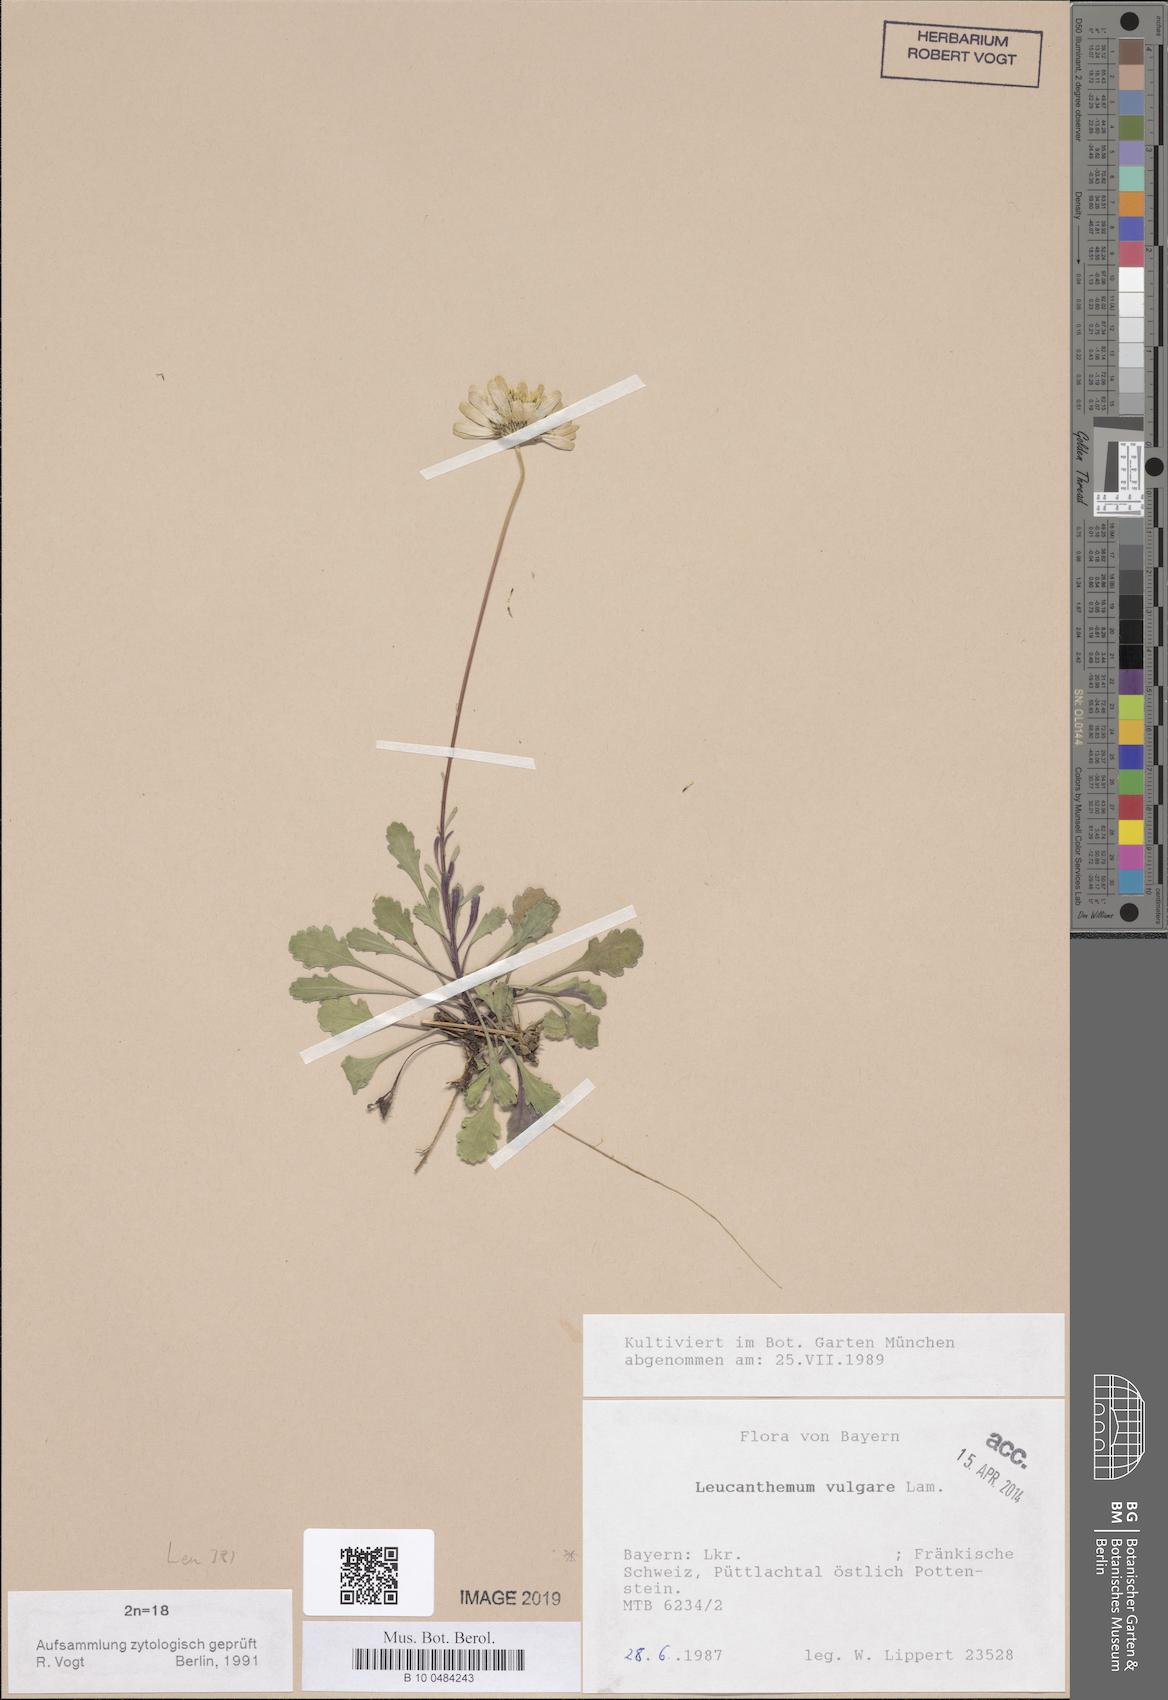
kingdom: Plantae
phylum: Tracheophyta
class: Magnoliopsida
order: Asterales
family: Asteraceae
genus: Leucanthemum
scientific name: Leucanthemum vulgare
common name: Oxeye daisy
